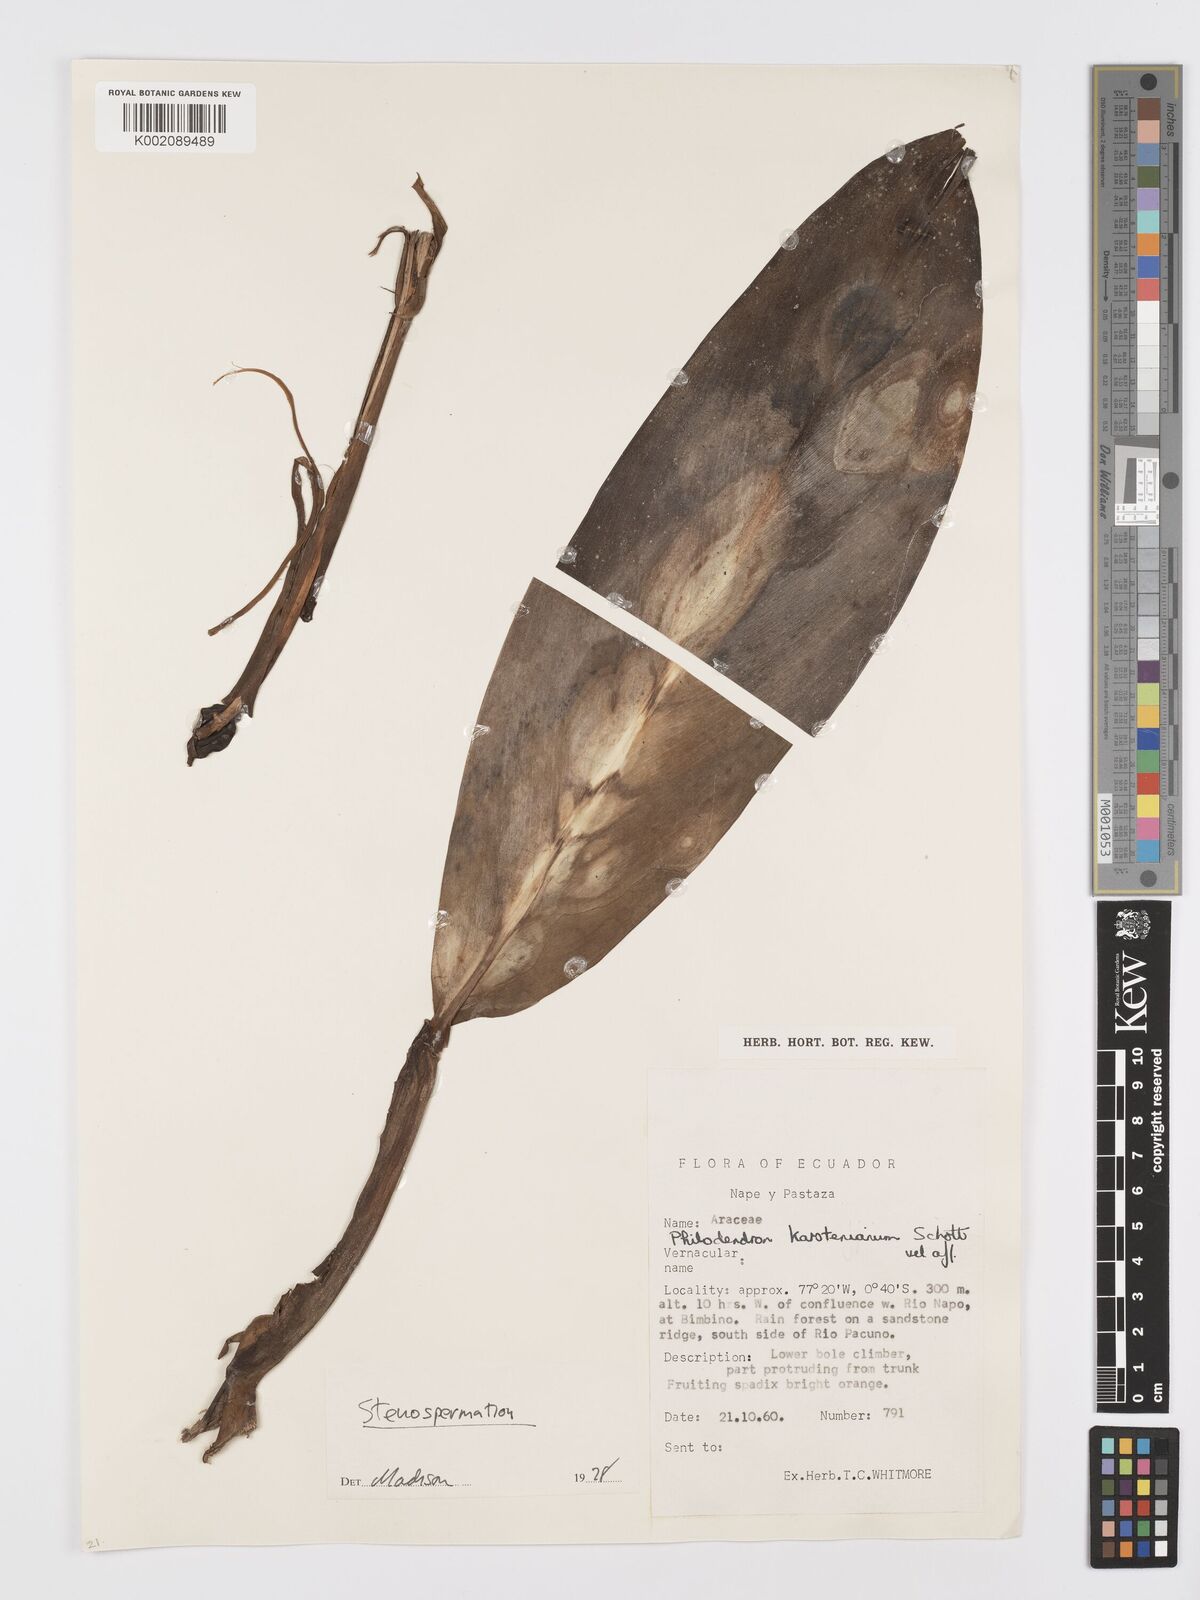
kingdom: Plantae
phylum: Tracheophyta
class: Liliopsida
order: Alismatales
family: Araceae
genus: Stenospermation
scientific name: Stenospermation
